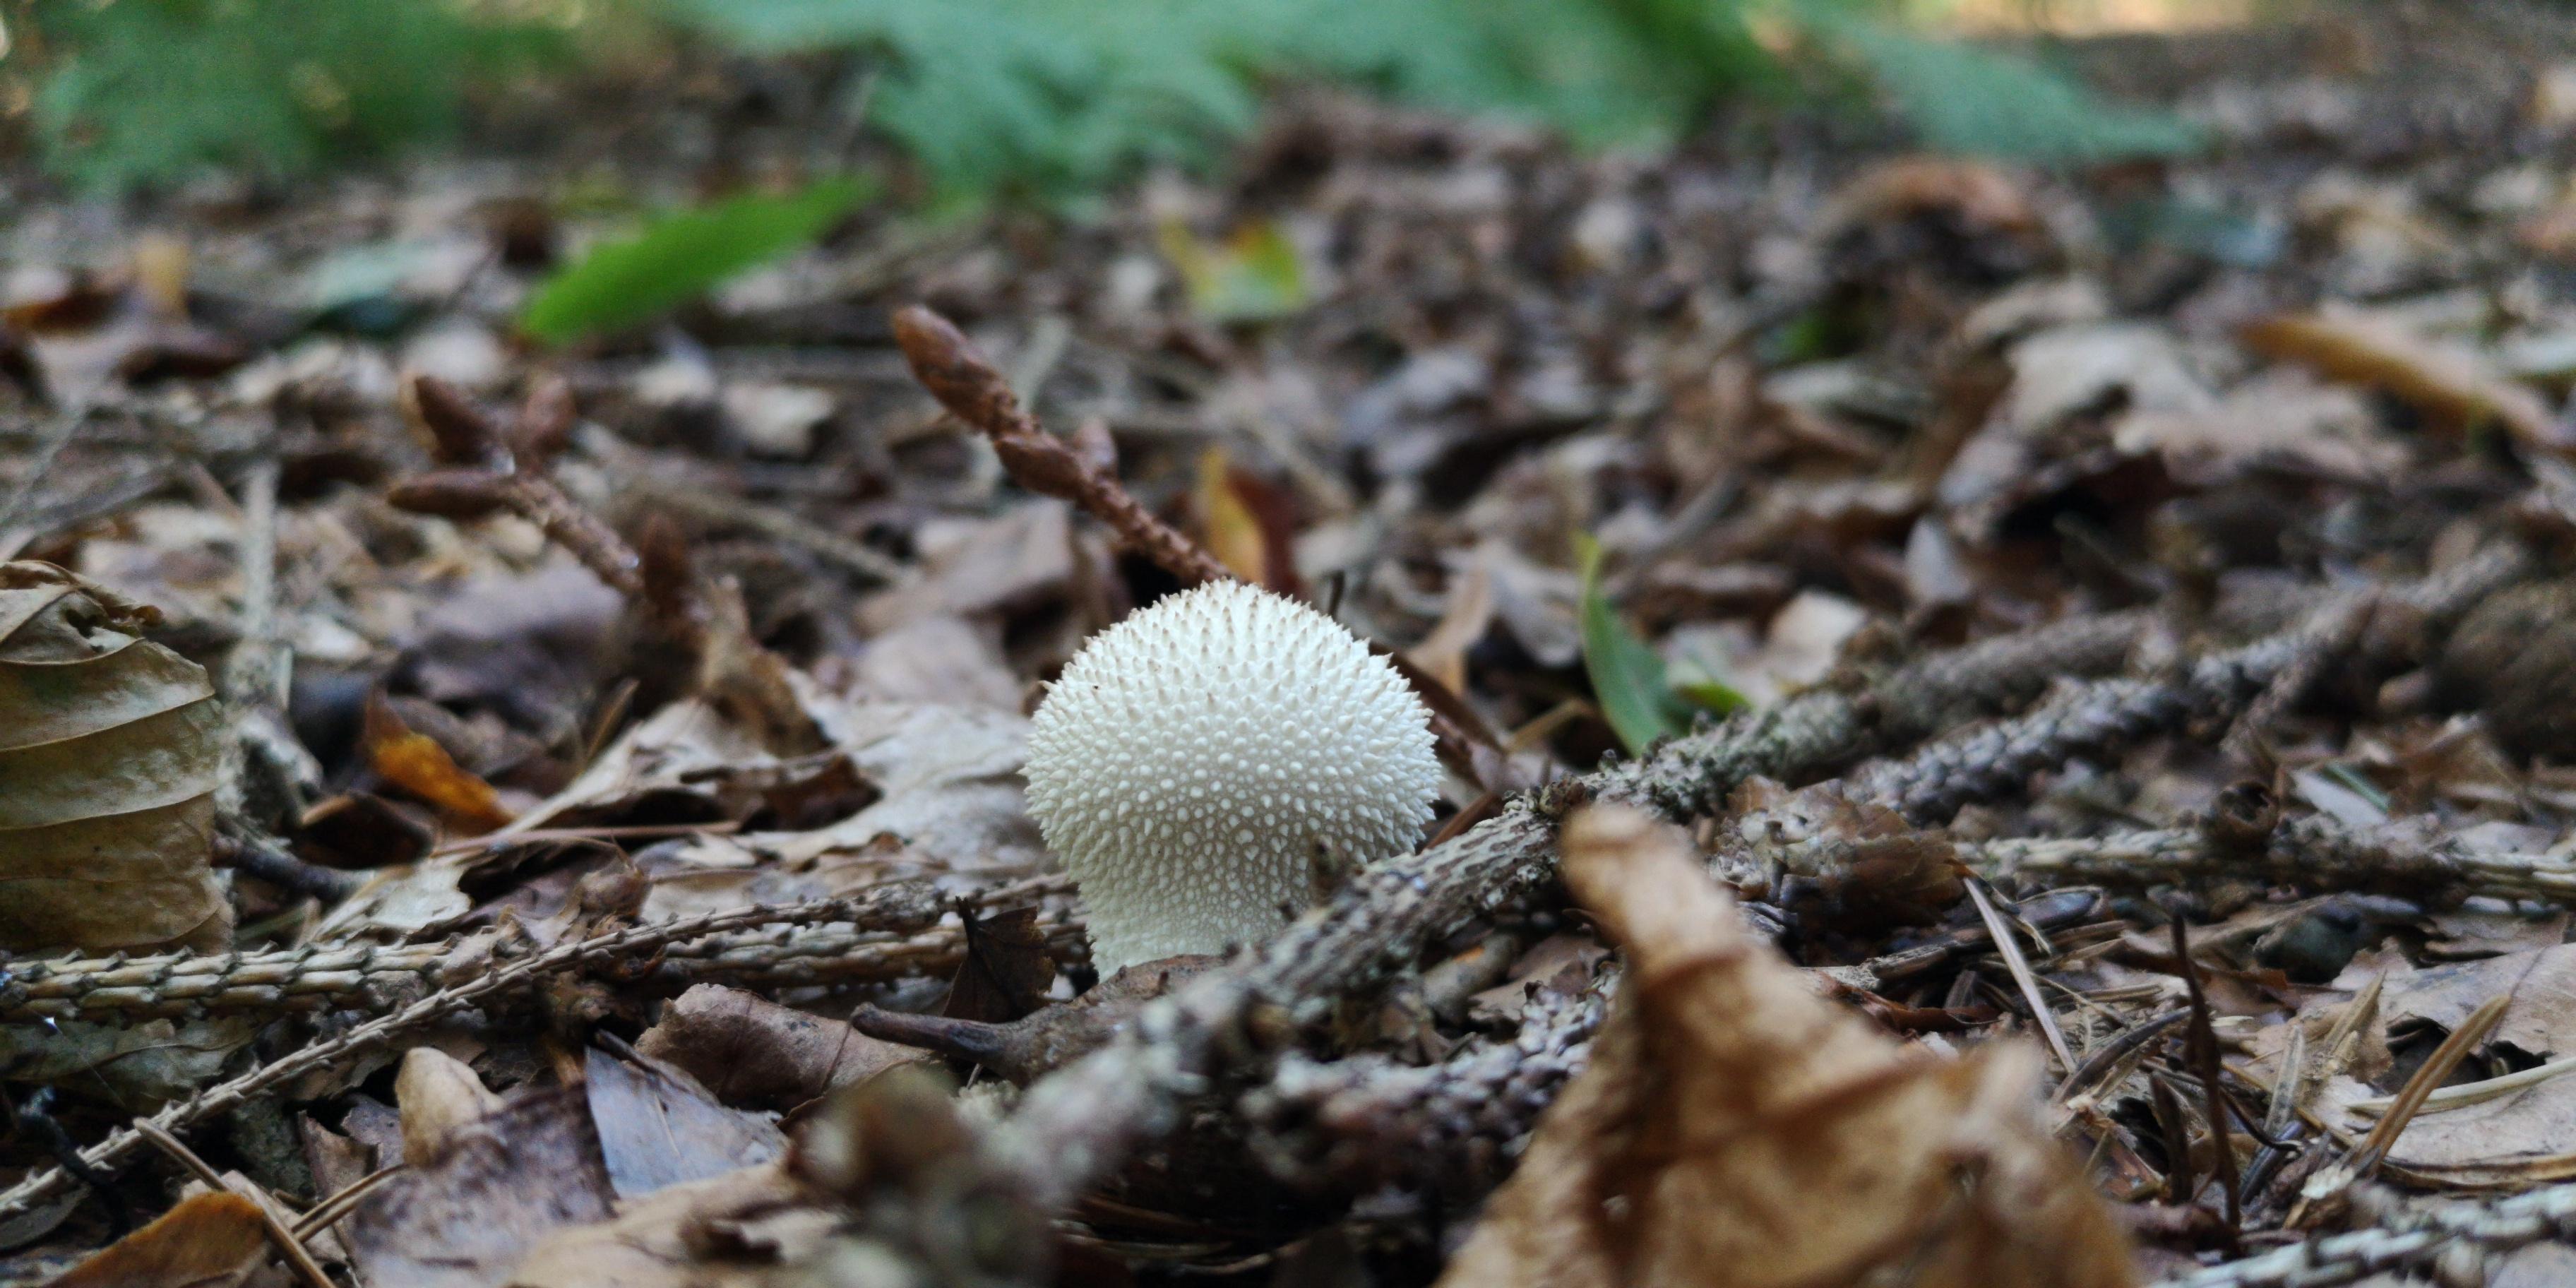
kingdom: Fungi
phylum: Basidiomycota
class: Agaricomycetes
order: Agaricales
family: Lycoperdaceae
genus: Lycoperdon
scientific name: Lycoperdon perlatum
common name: krystal-støvbold
